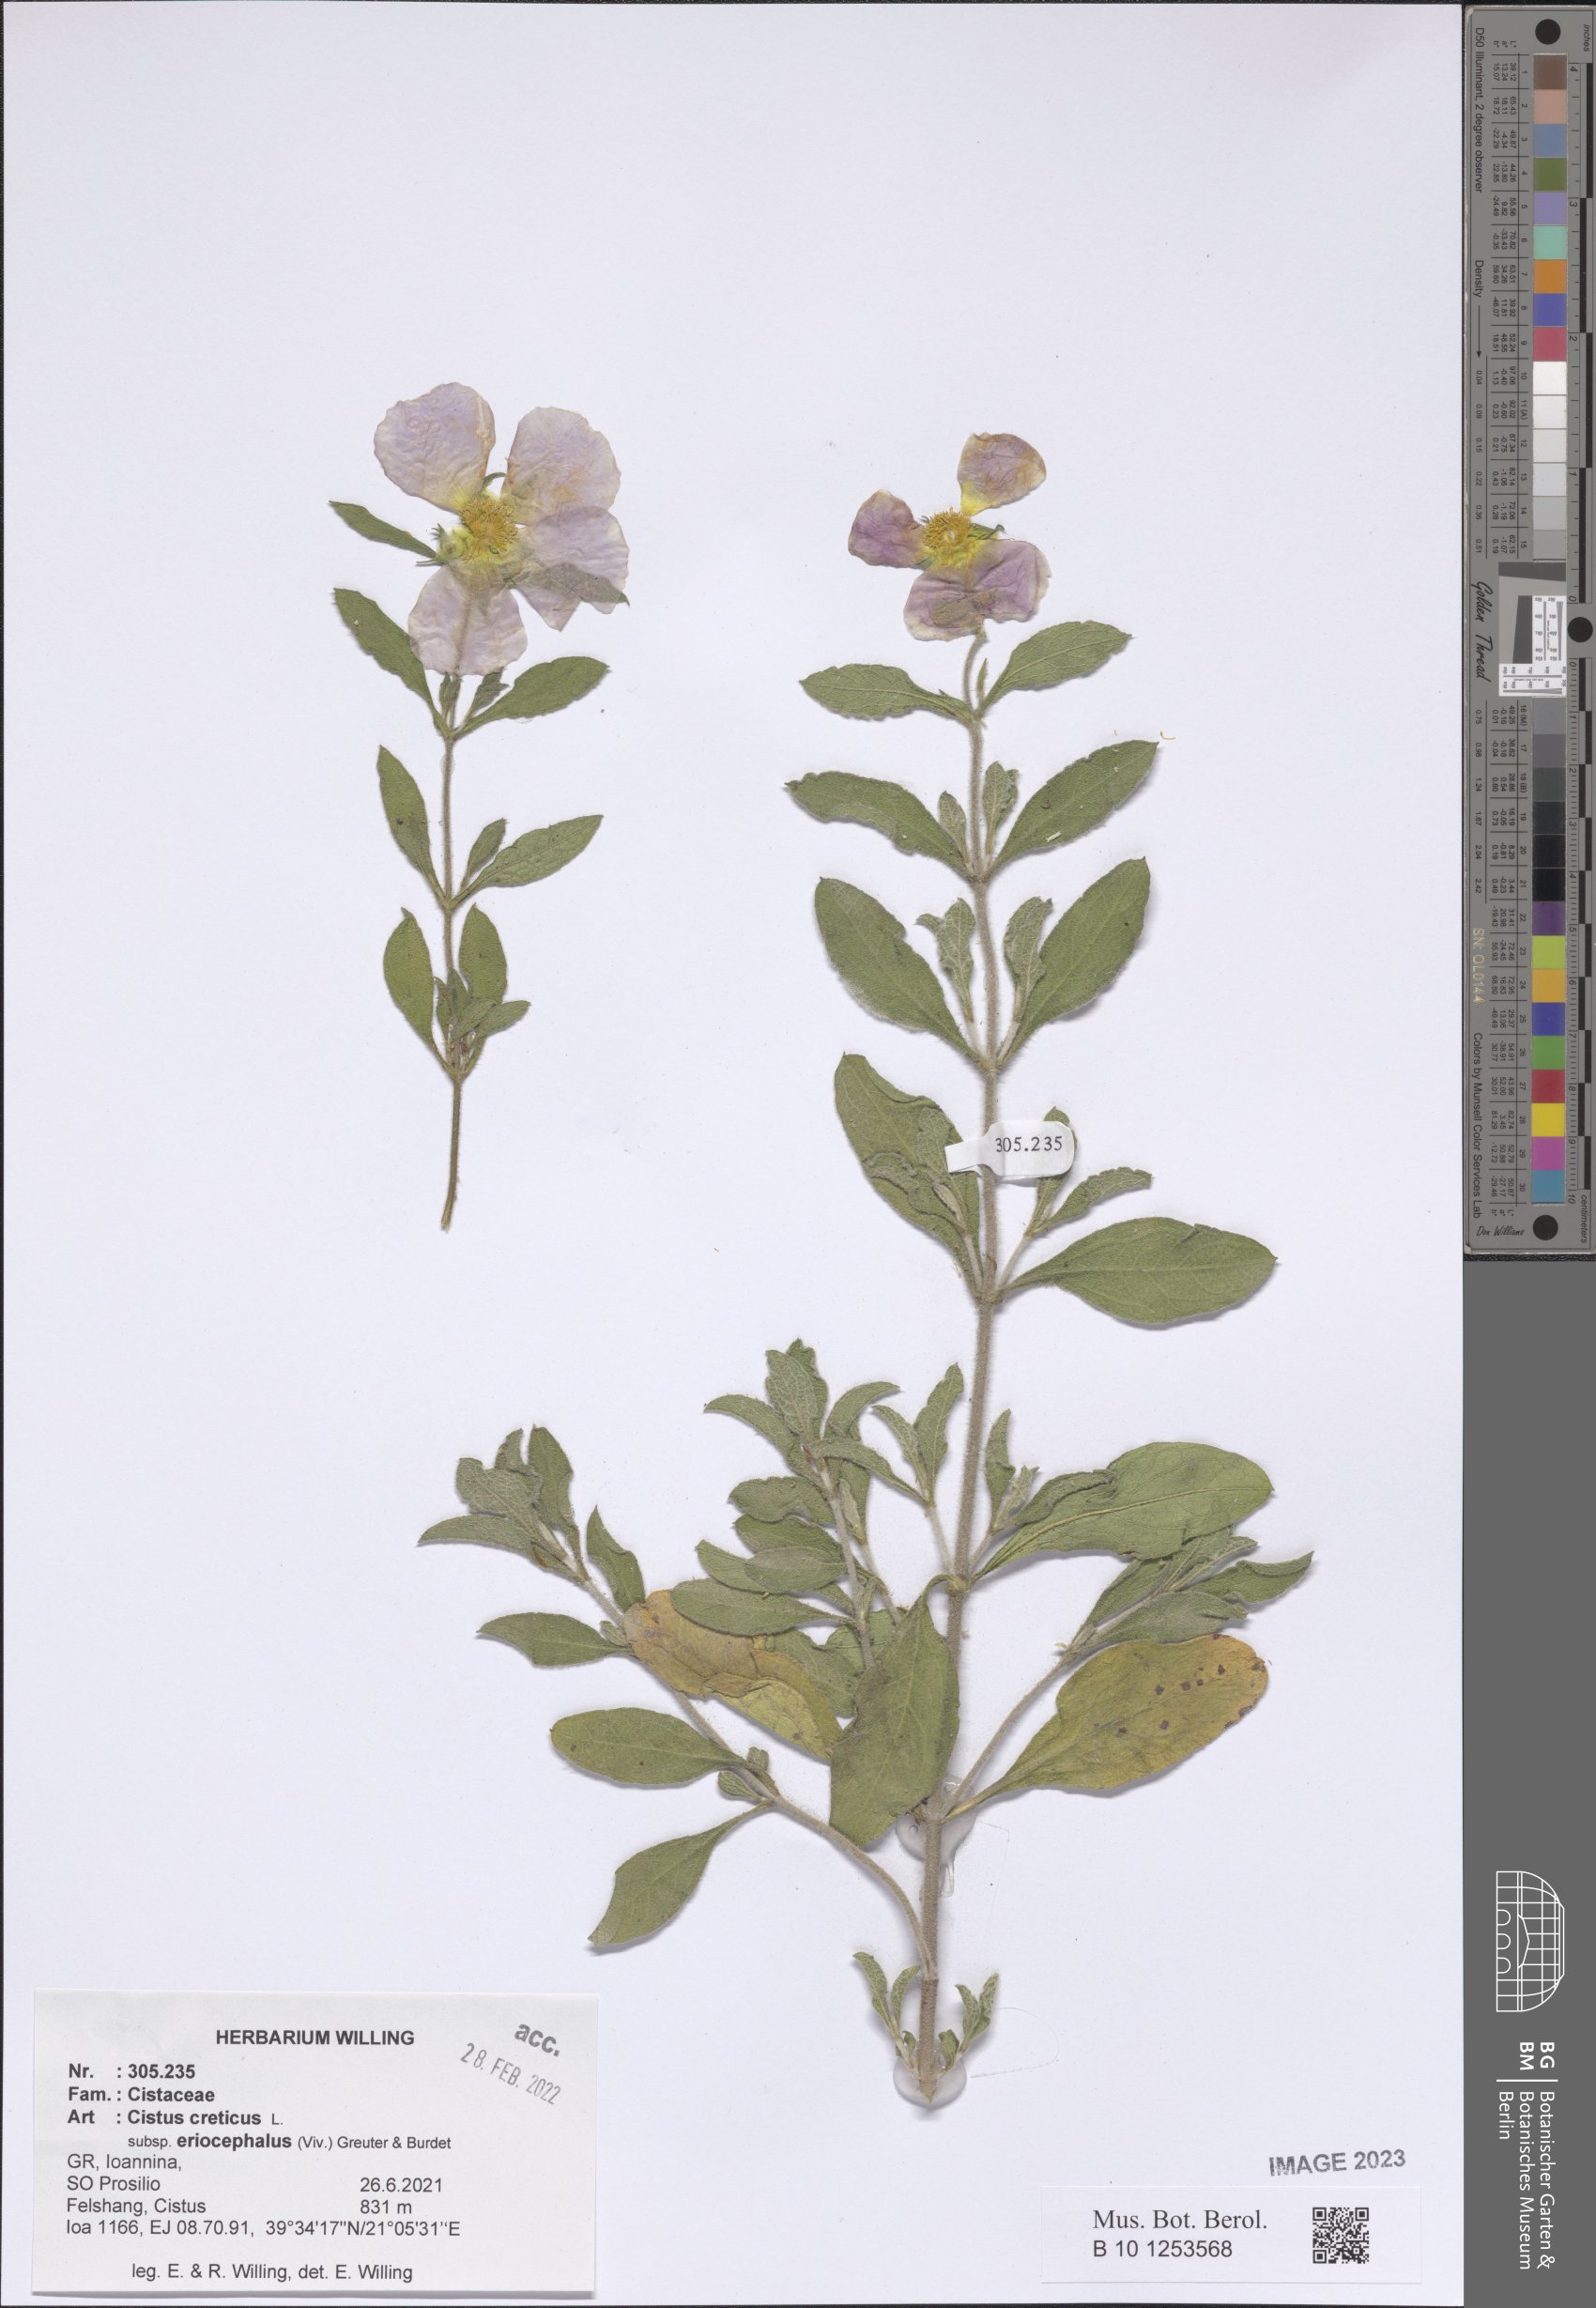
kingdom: Plantae
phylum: Tracheophyta
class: Magnoliopsida
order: Malvales
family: Cistaceae
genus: Cistus
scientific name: Cistus tauricus
